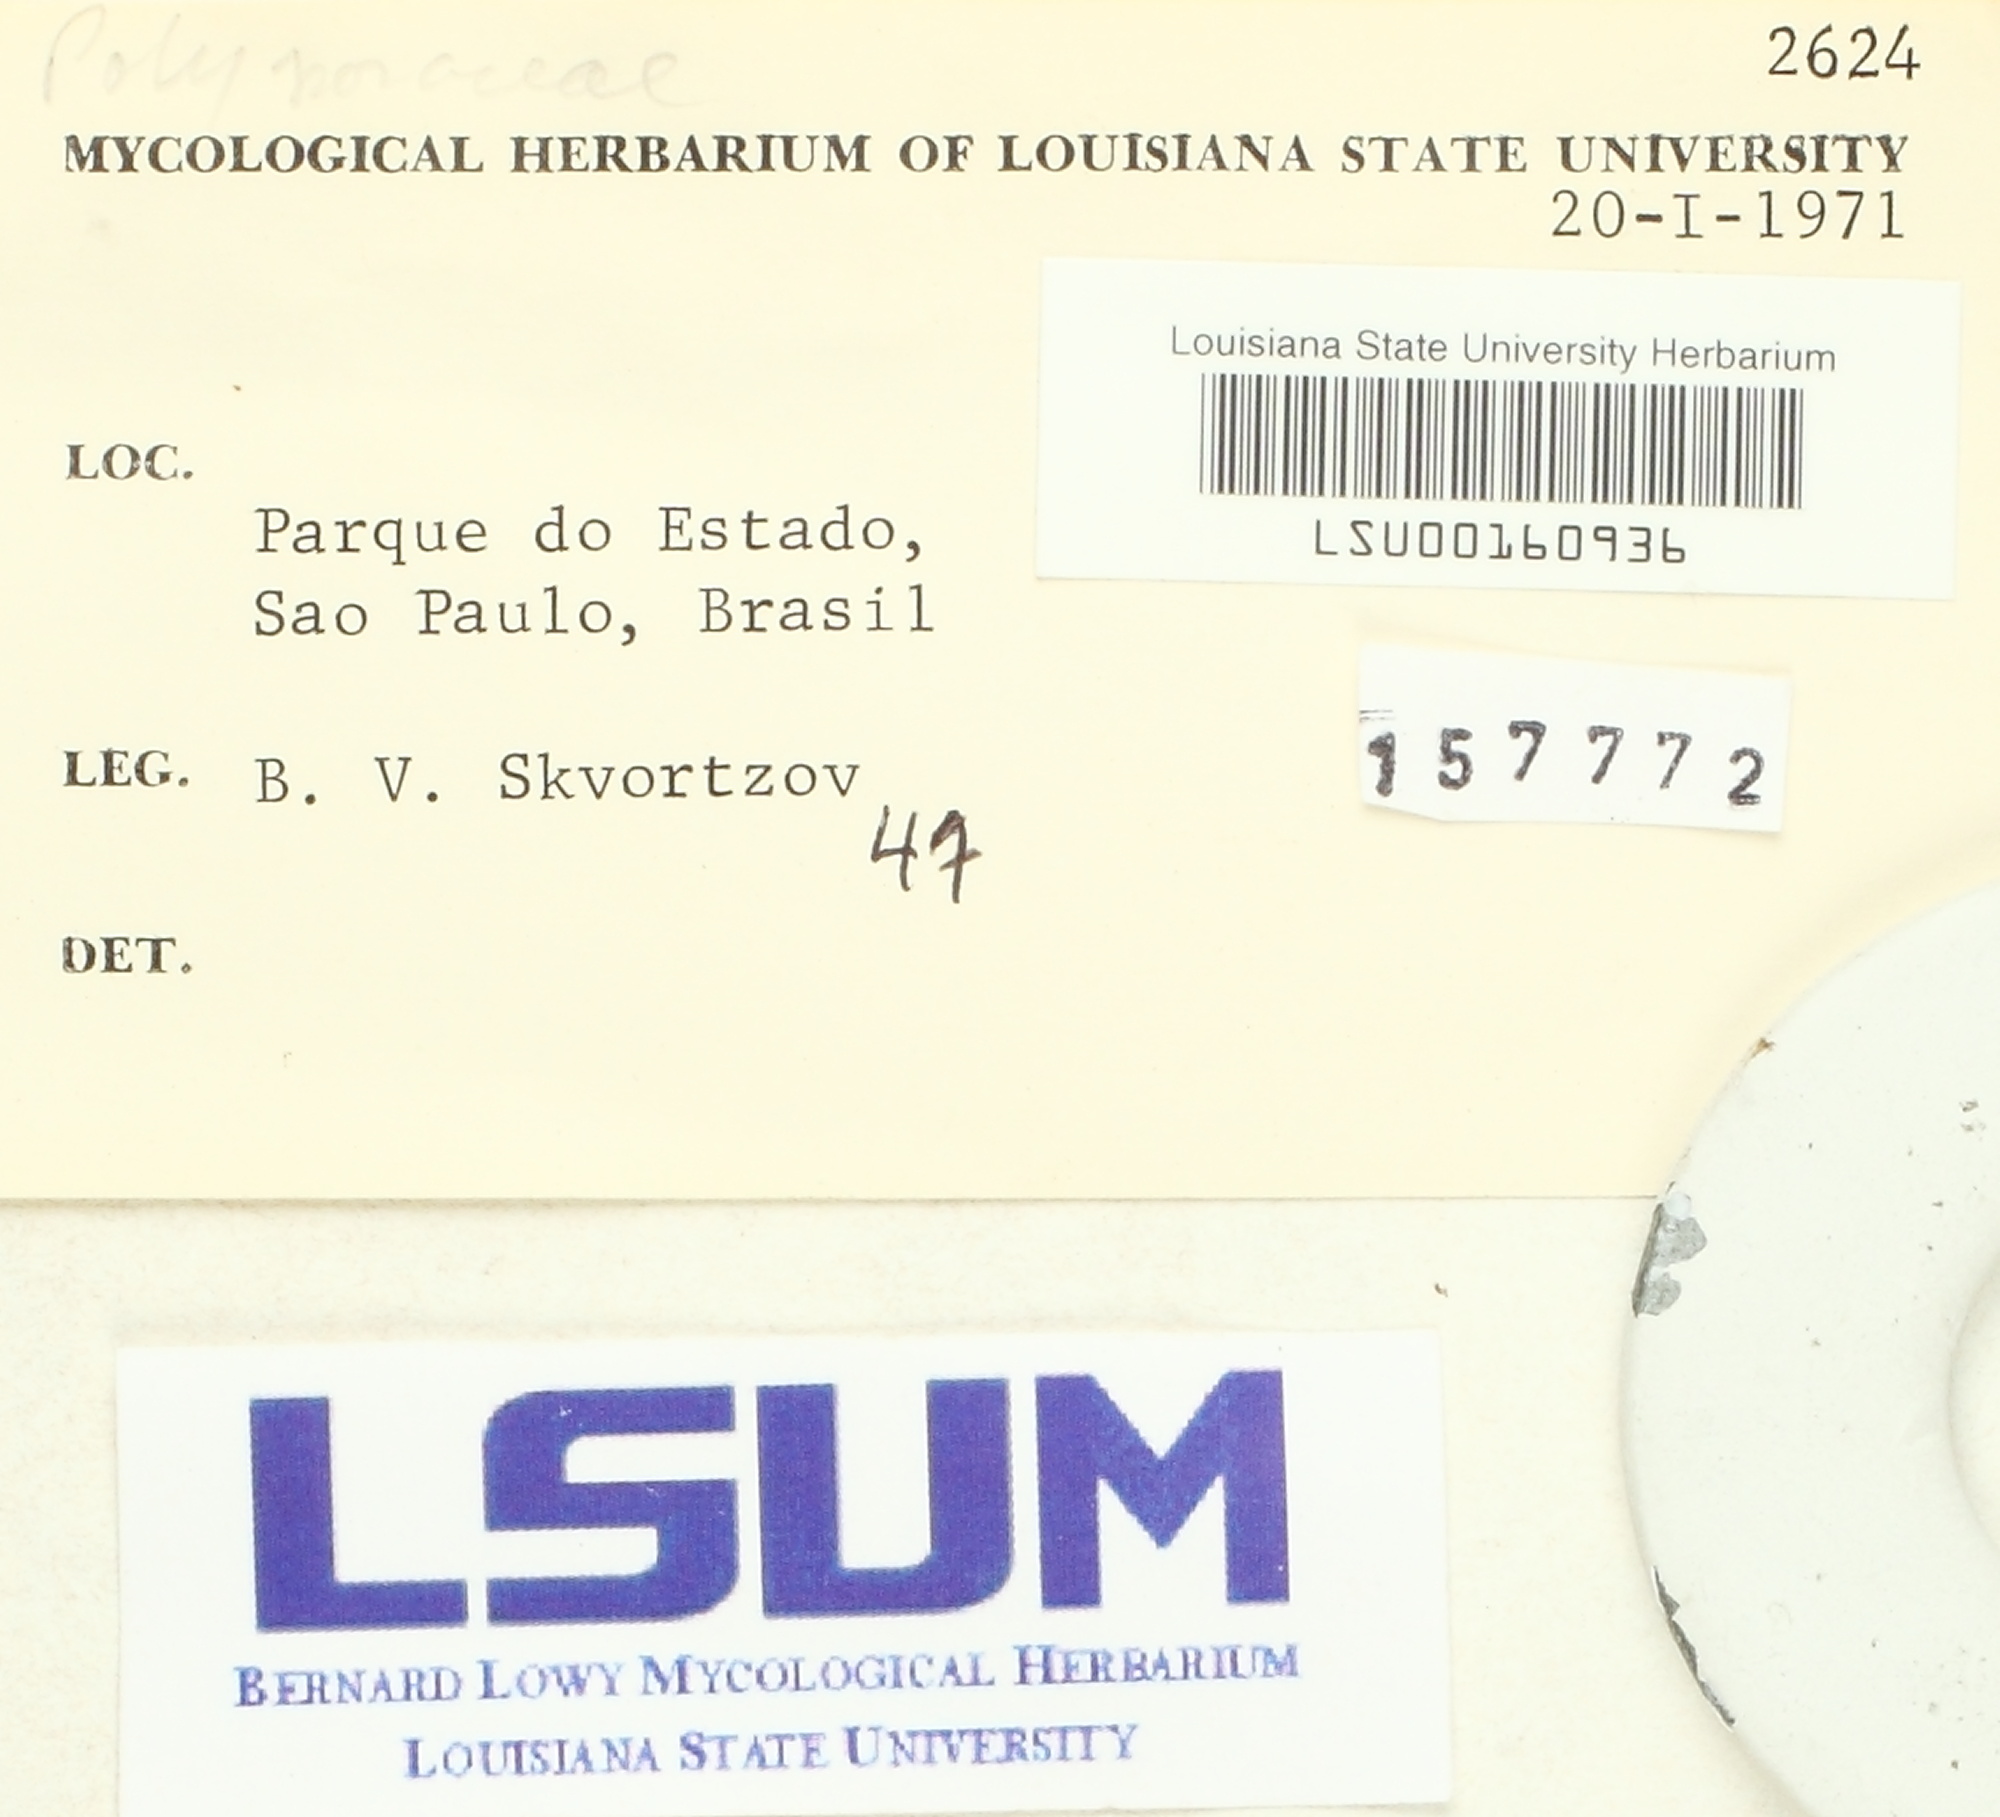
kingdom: Fungi
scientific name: Fungi
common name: Fungi
